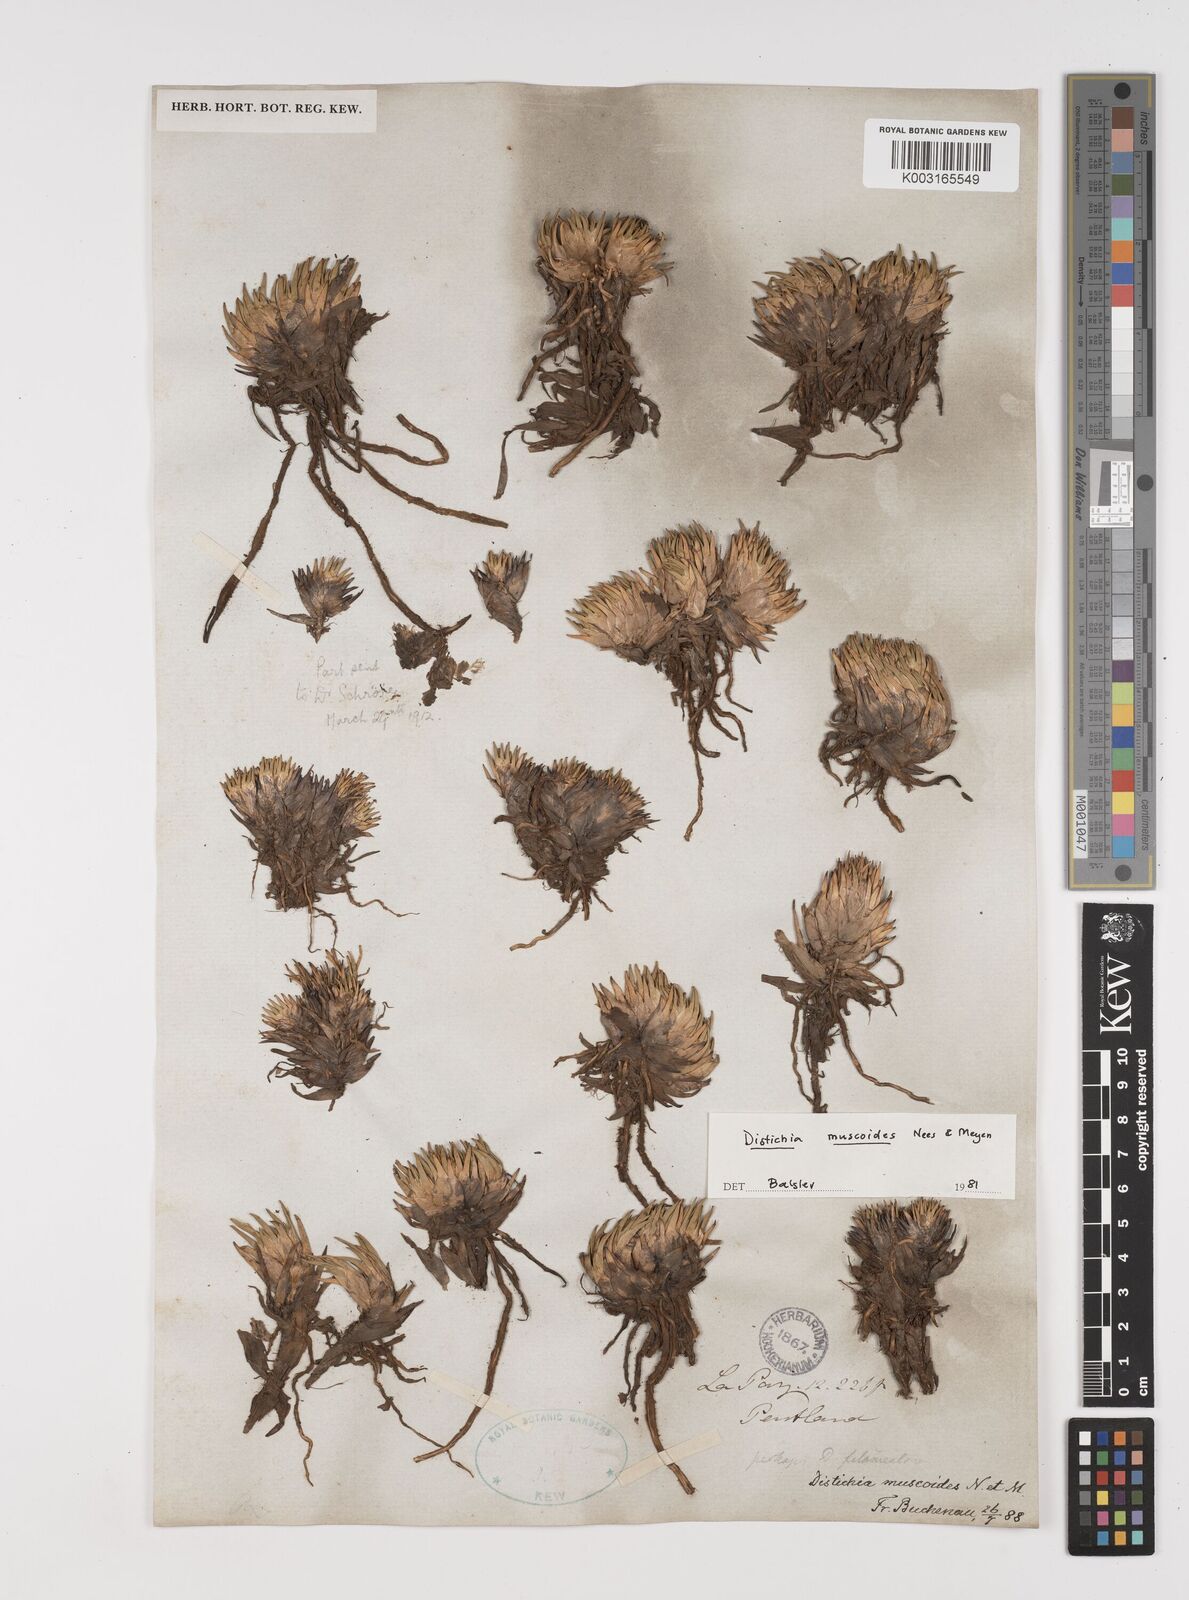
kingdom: Plantae
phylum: Tracheophyta
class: Liliopsida
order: Poales
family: Juncaceae
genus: Distichia
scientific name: Distichia muscoides
